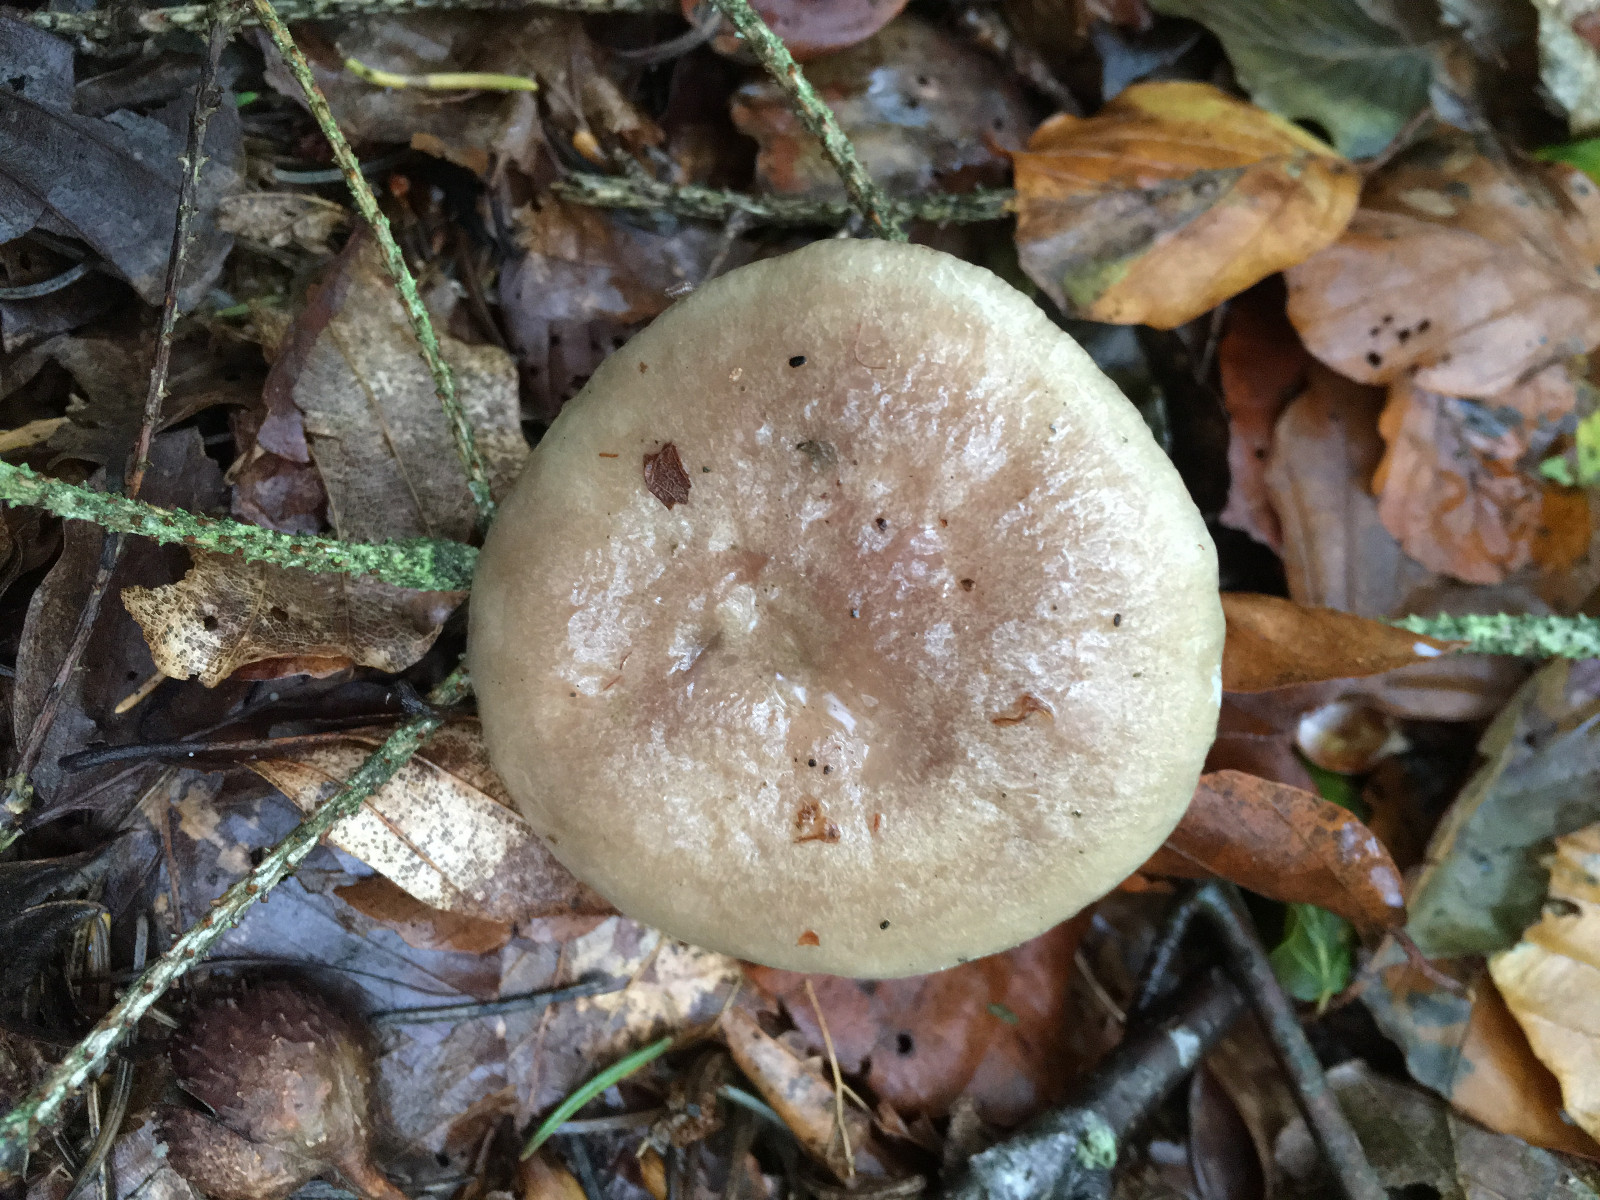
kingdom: Fungi
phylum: Basidiomycota
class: Agaricomycetes
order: Russulales
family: Russulaceae
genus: Lactarius
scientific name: Lactarius blennius
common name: dråbeplettet mælkehat
